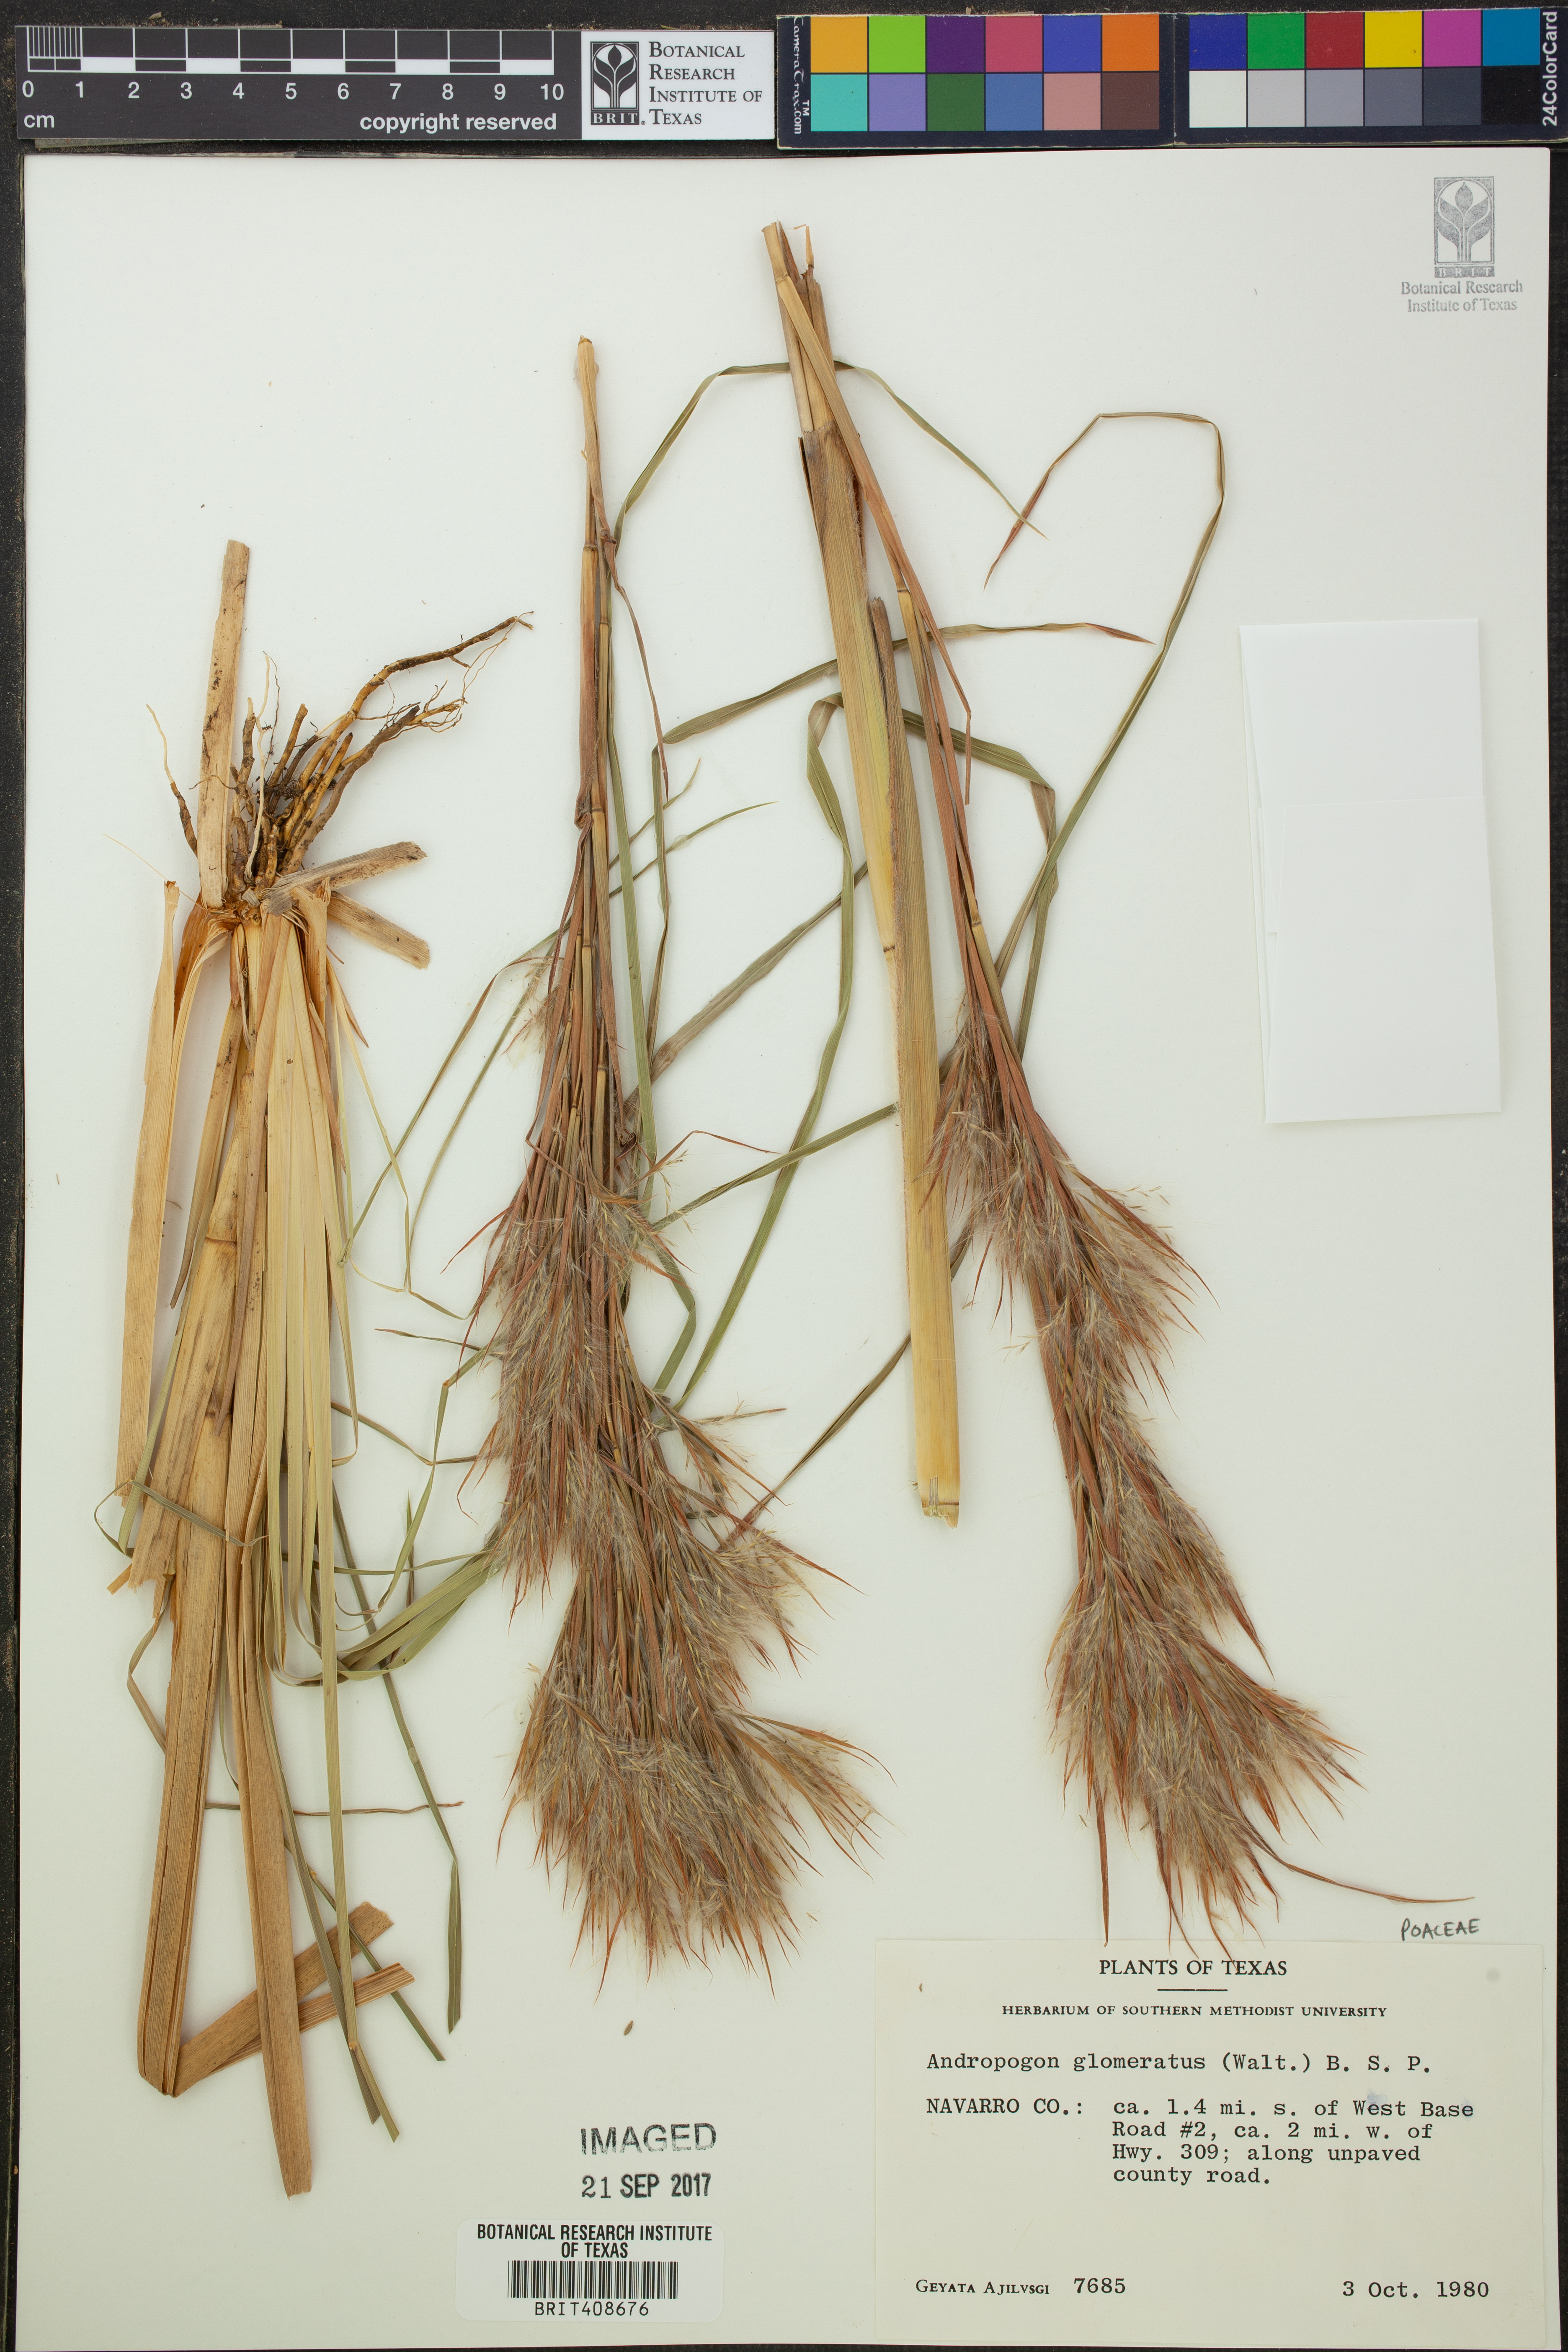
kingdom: Plantae
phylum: Tracheophyta
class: Liliopsida
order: Poales
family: Poaceae
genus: Andropogon
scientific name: Andropogon glomeratus
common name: Bushy beard grass
